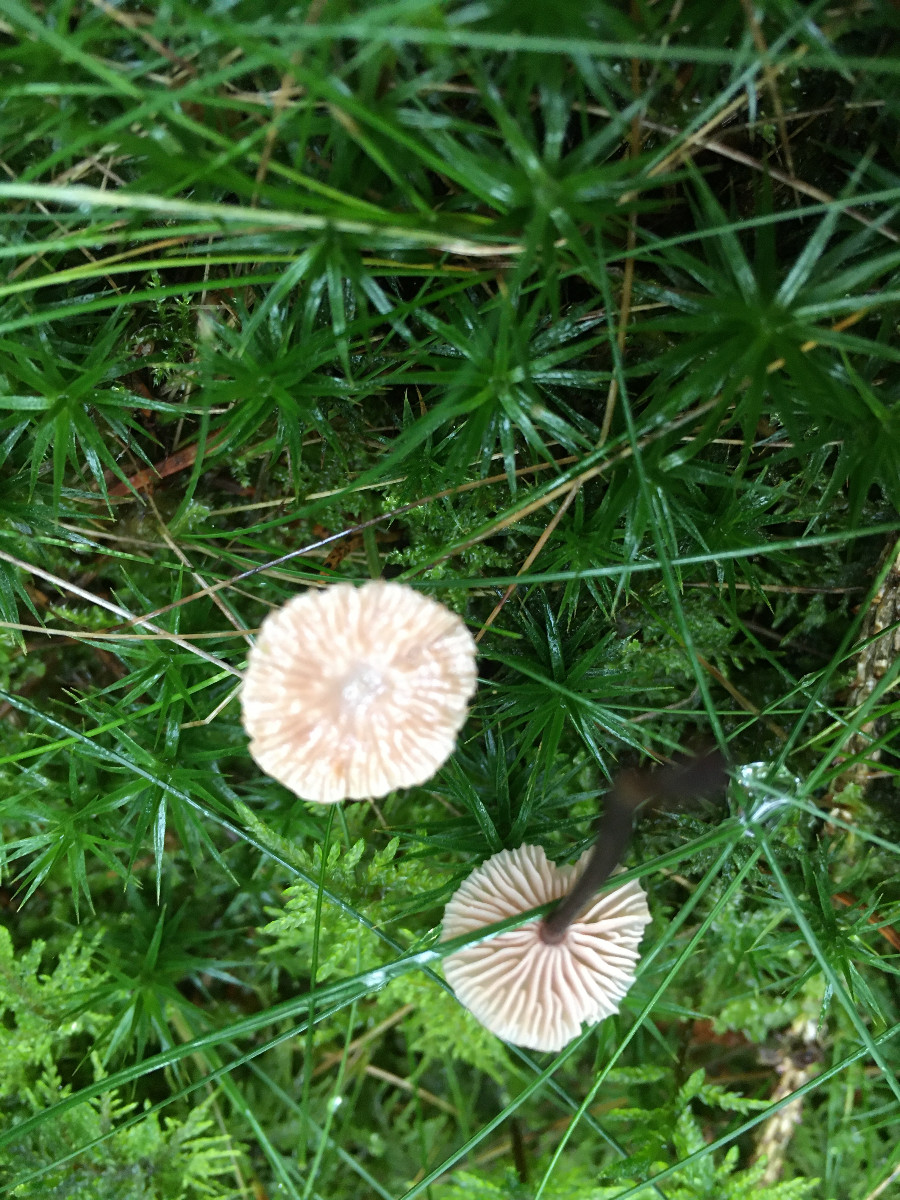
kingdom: Fungi
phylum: Basidiomycota
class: Agaricomycetes
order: Agaricales
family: Omphalotaceae
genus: Paragymnopus
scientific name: Paragymnopus perforans
